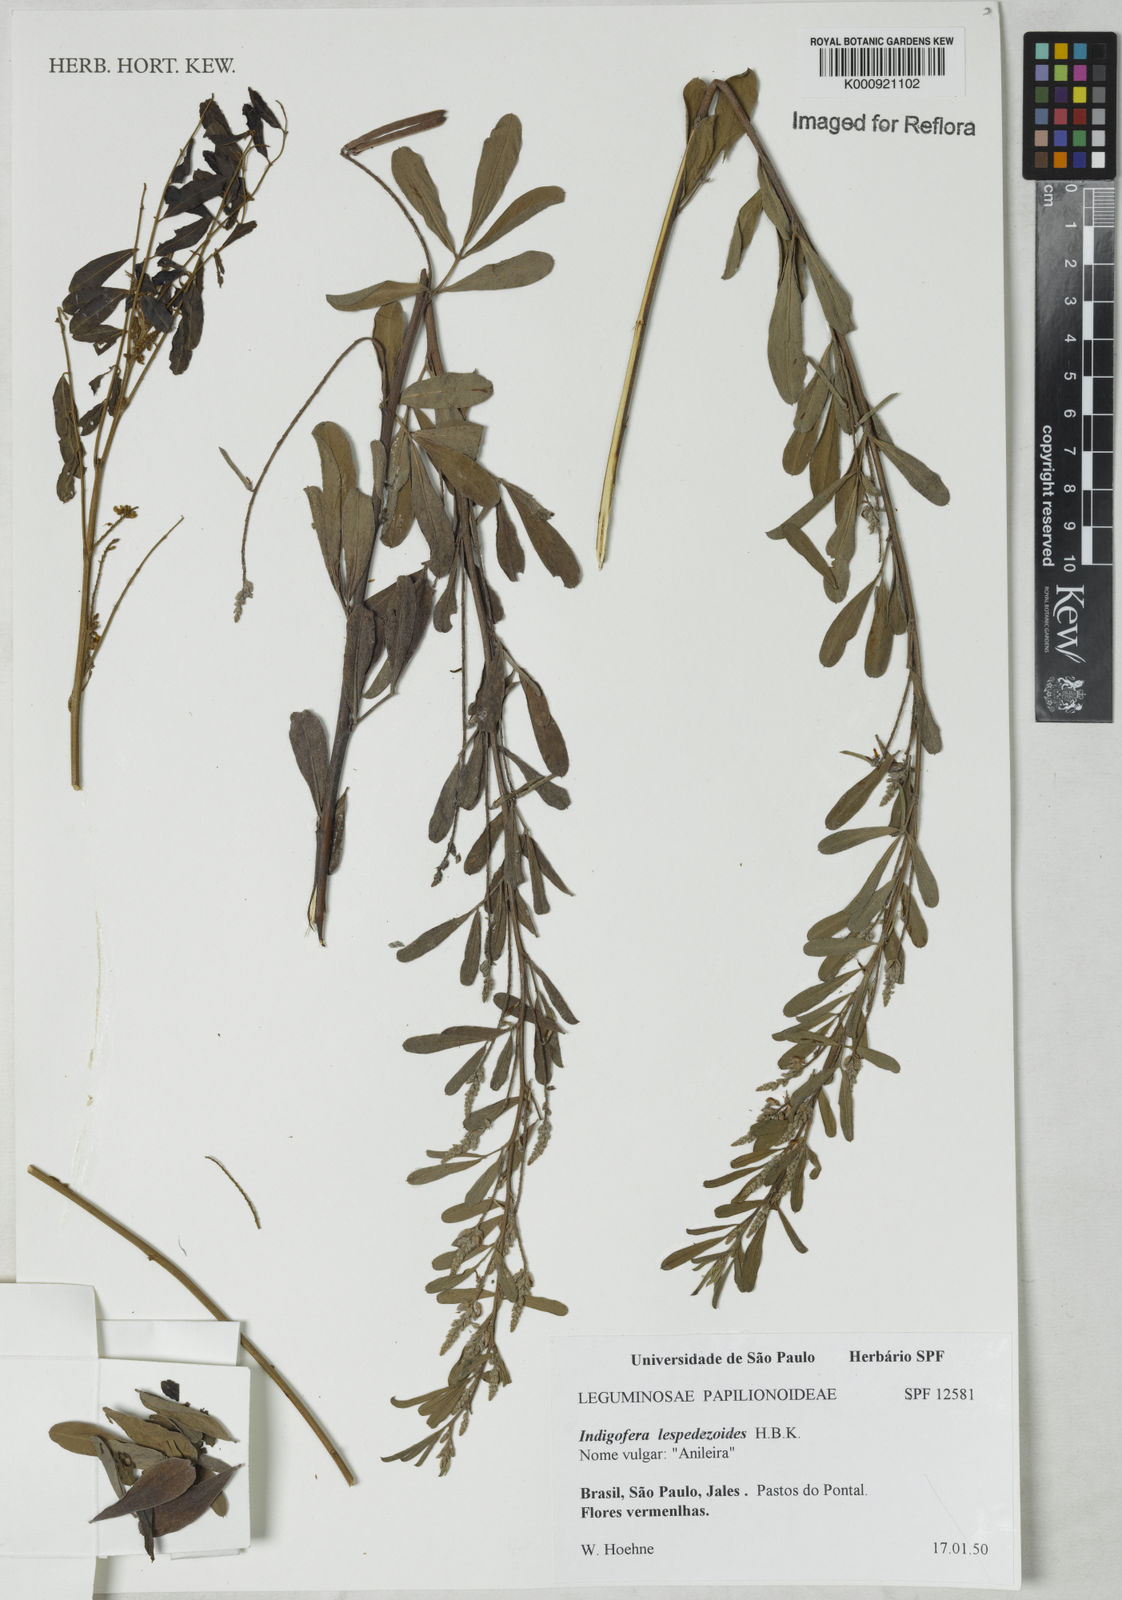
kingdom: Plantae
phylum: Tracheophyta
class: Magnoliopsida
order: Fabales
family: Fabaceae
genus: Indigofera
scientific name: Indigofera lespedezioides
